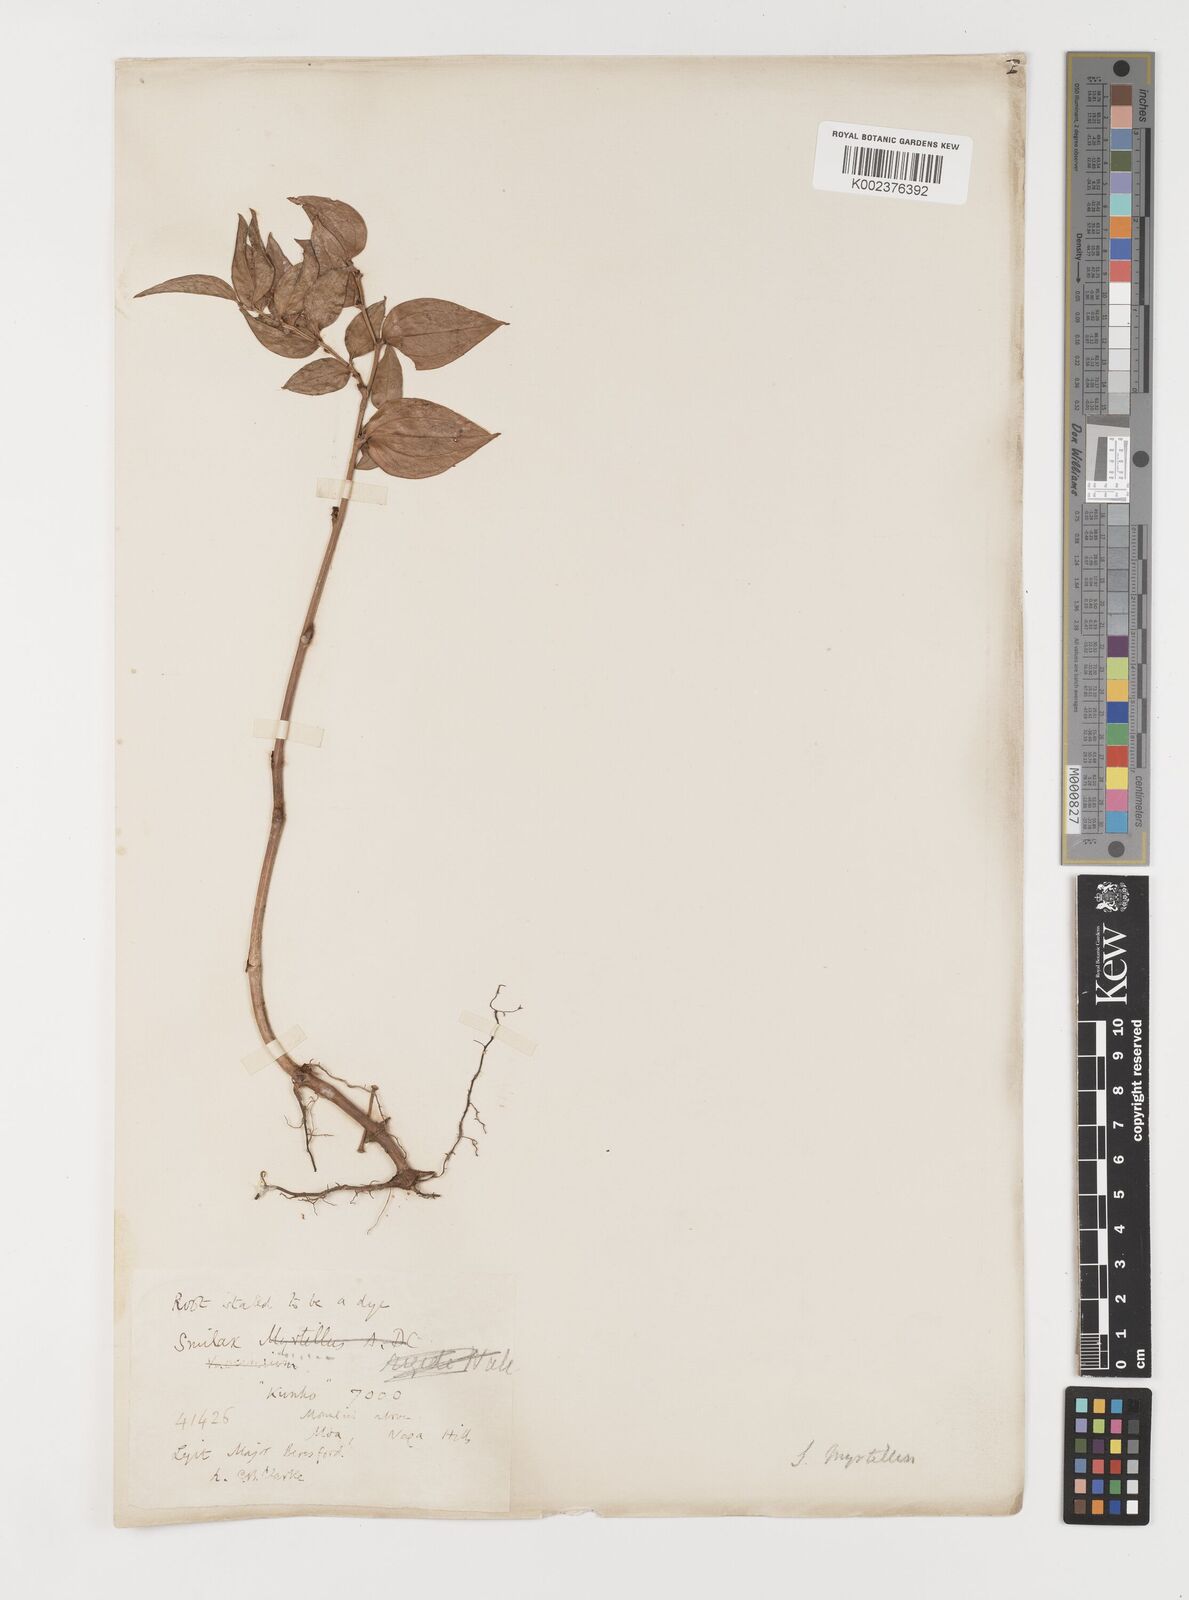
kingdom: Plantae
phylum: Tracheophyta
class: Liliopsida
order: Liliales
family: Smilacaceae
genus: Smilax
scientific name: Smilax myrtillus
